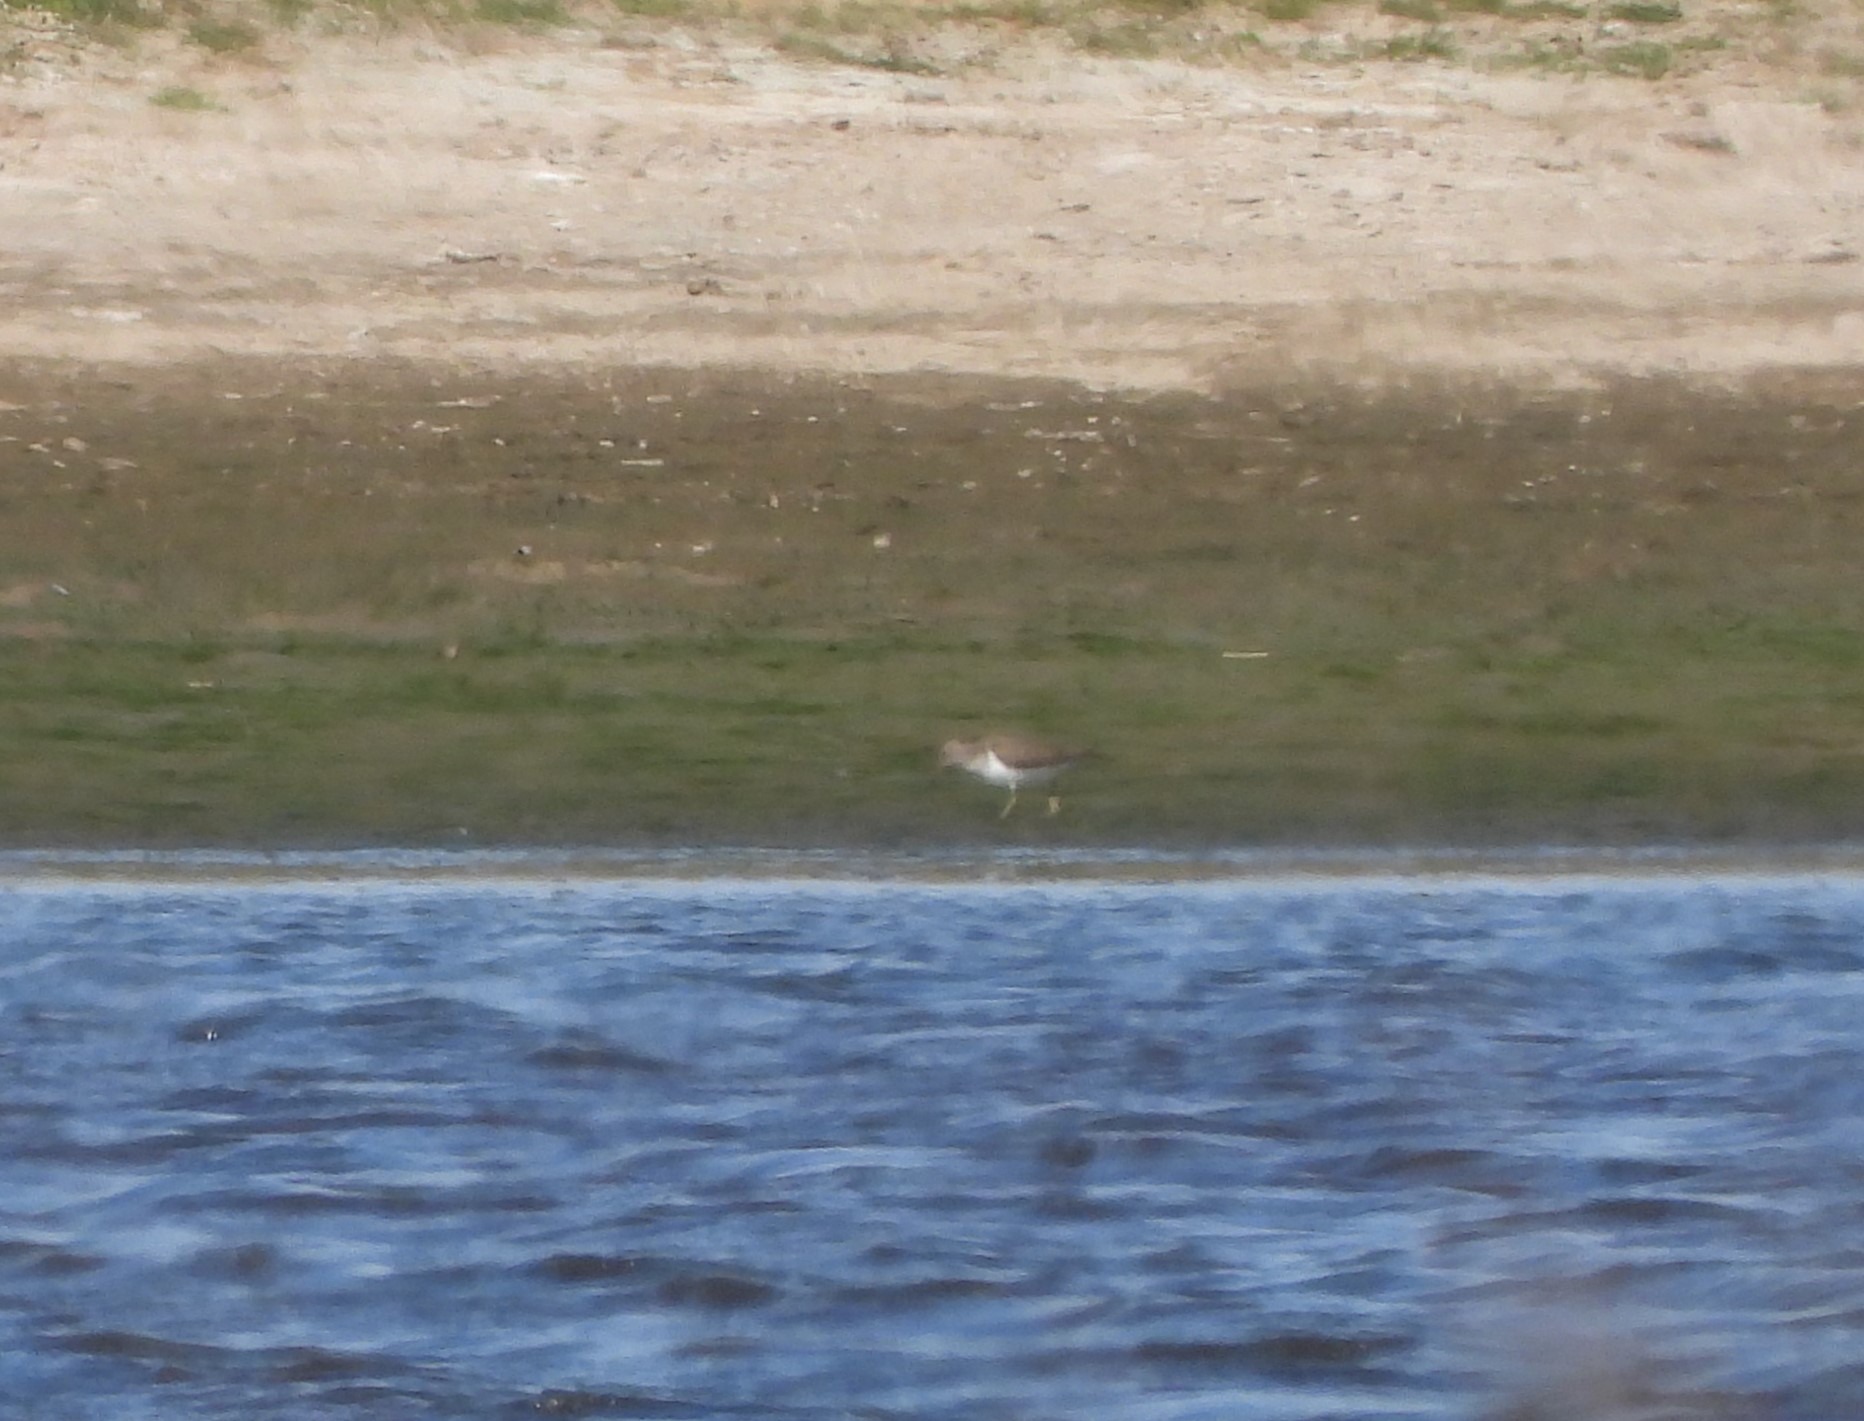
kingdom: Animalia
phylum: Chordata
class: Aves
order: Charadriiformes
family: Scolopacidae
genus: Actitis
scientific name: Actitis hypoleucos
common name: Mudderklire
